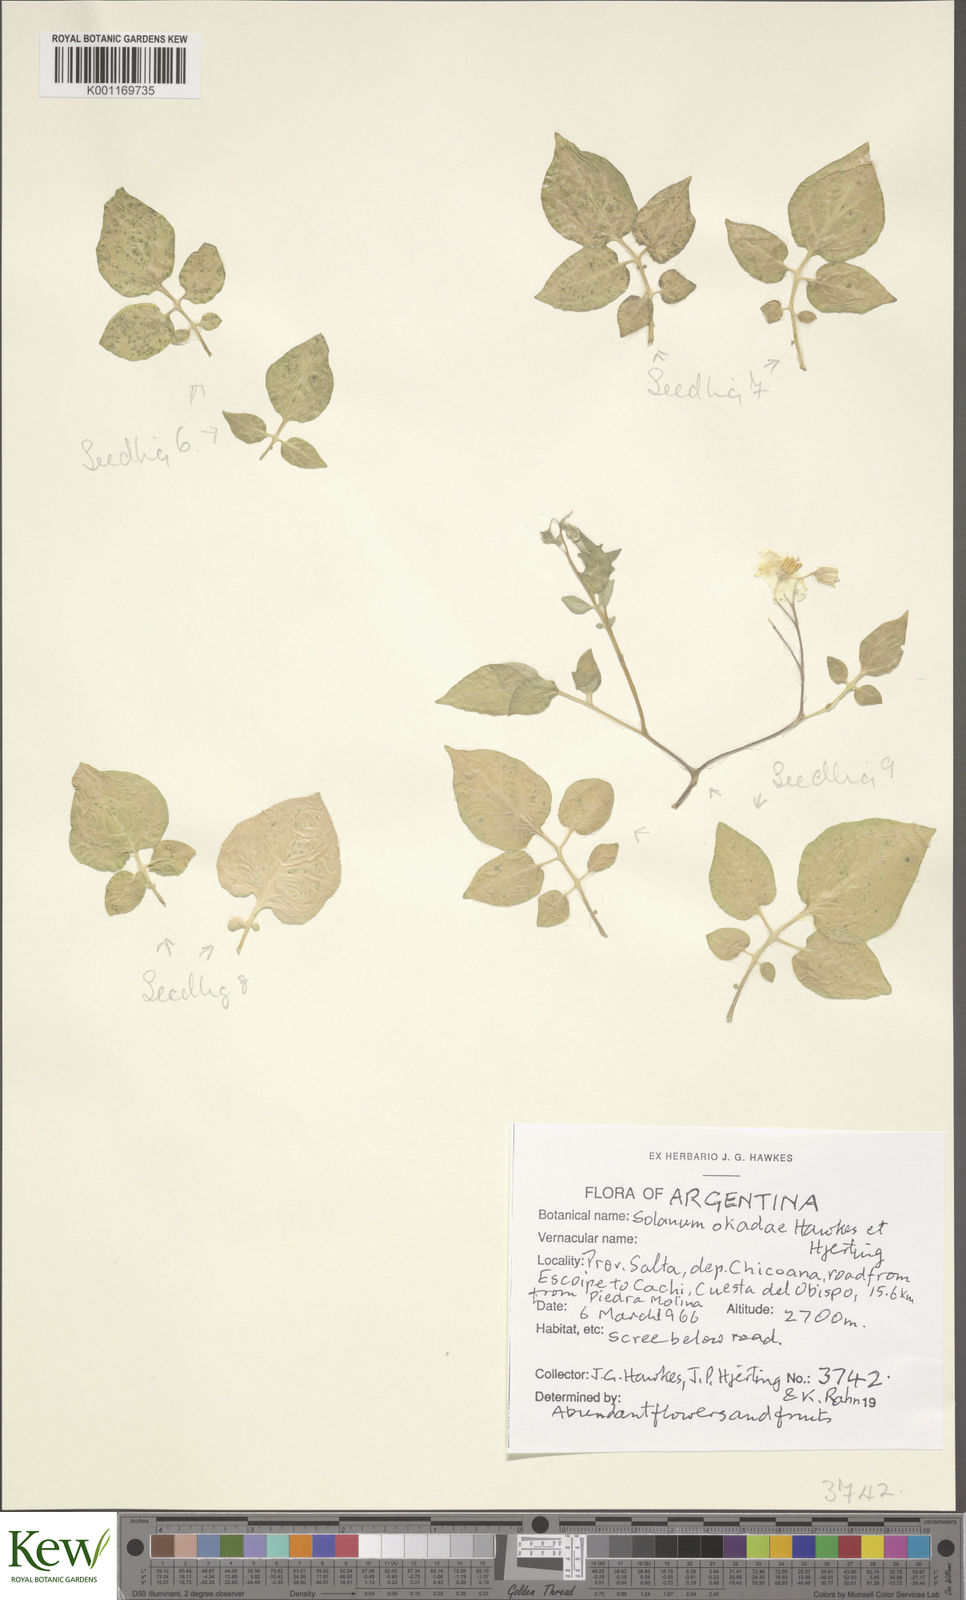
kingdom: Plantae
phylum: Tracheophyta
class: Magnoliopsida
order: Solanales
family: Solanaceae
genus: Solanum
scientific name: Solanum okadae
